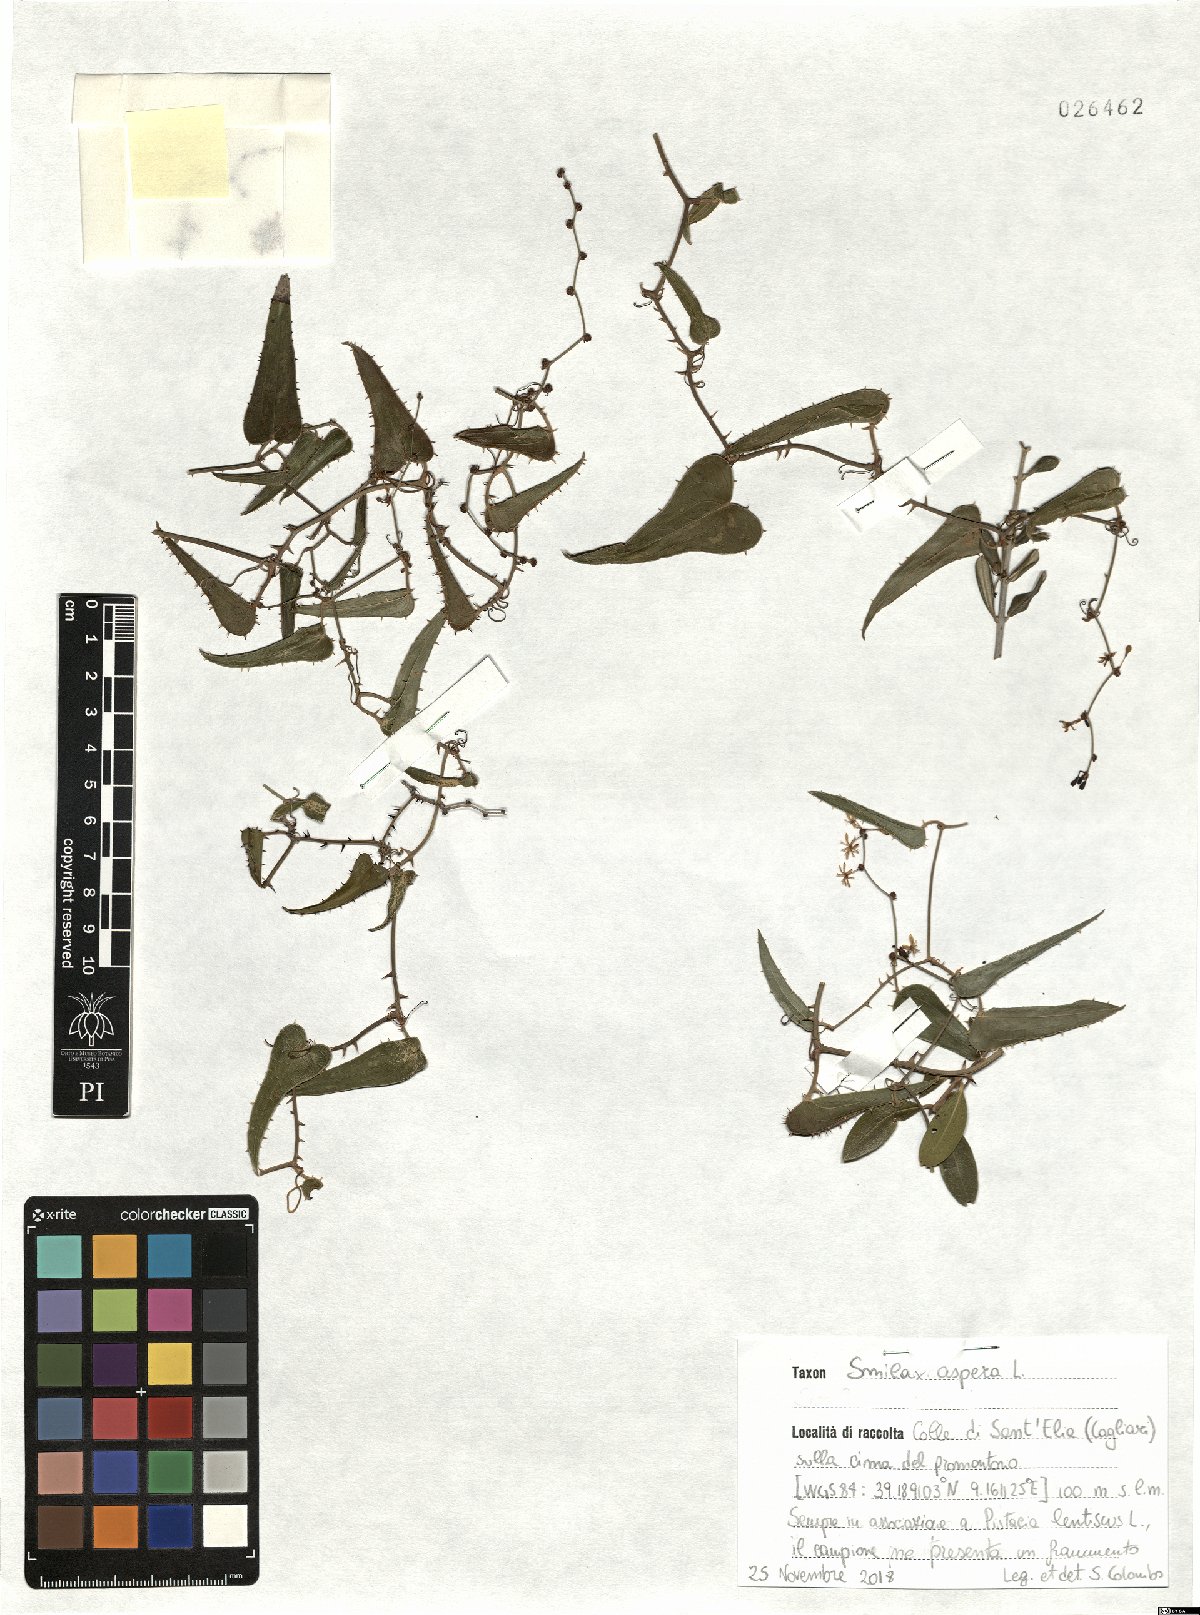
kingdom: Plantae
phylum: Tracheophyta
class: Liliopsida
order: Liliales
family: Smilacaceae
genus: Smilax
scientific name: Smilax aspera
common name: Common smilax
